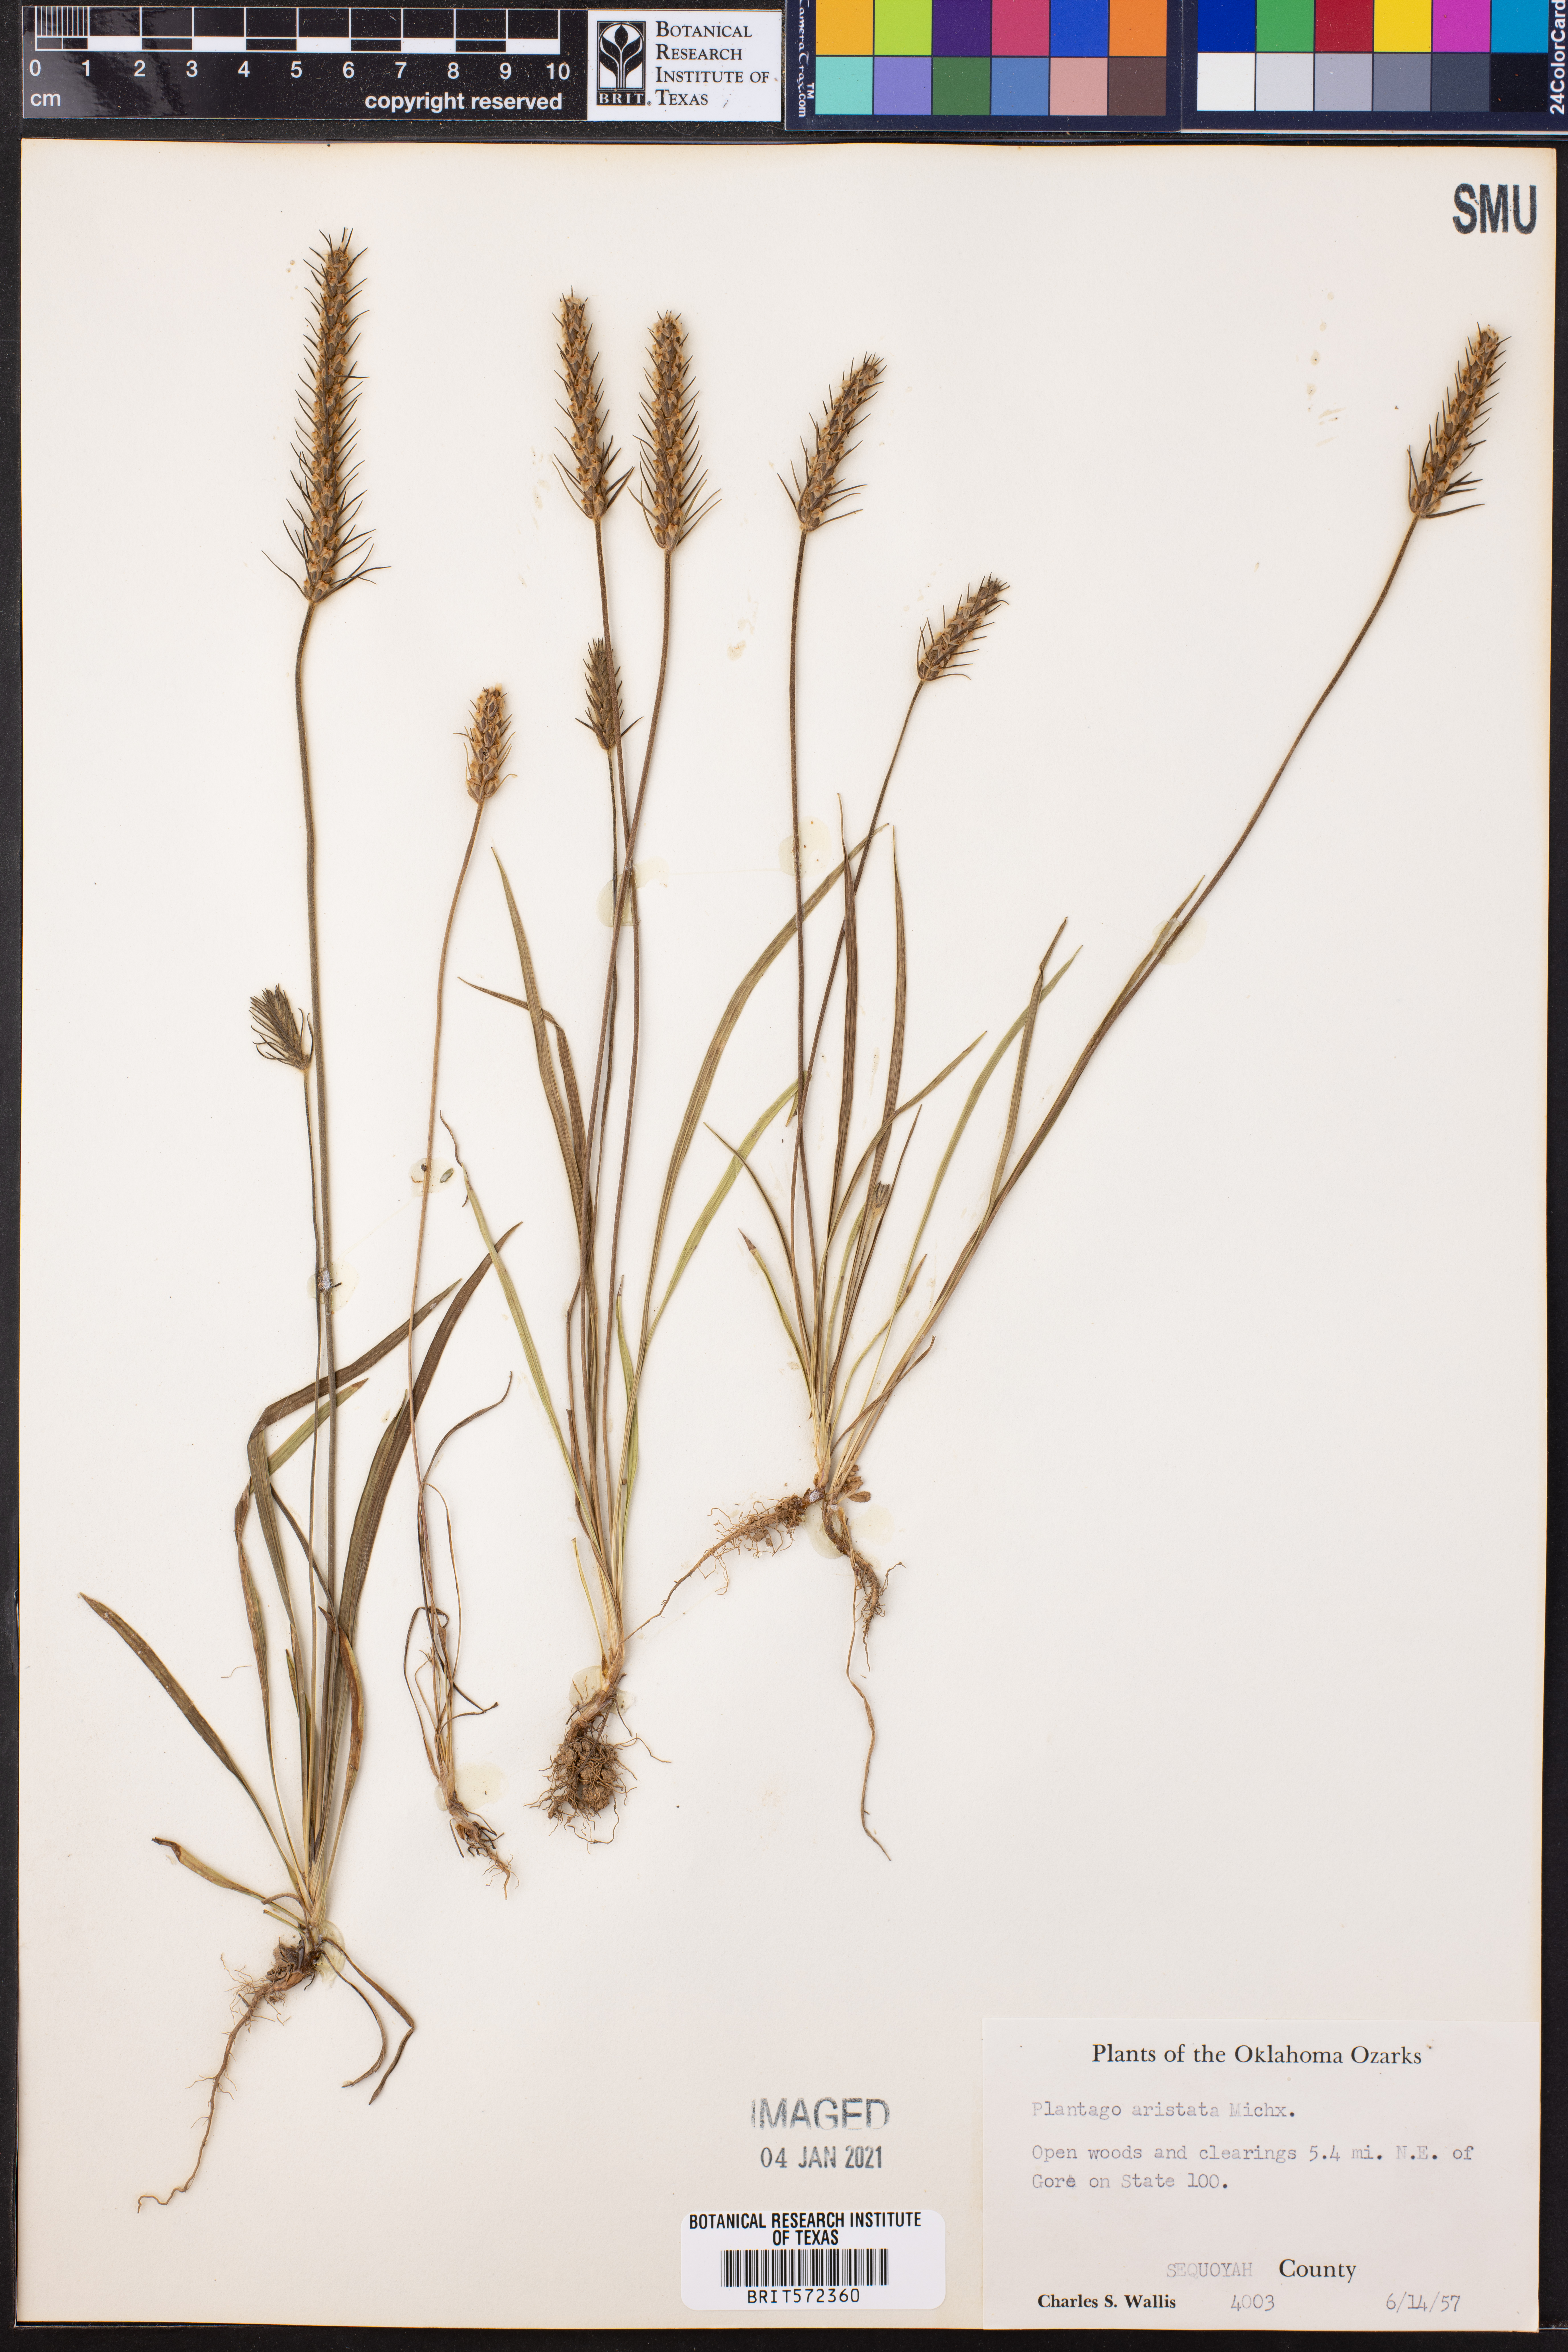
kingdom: Plantae
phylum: Tracheophyta
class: Magnoliopsida
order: Lamiales
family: Plantaginaceae
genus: Plantago
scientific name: Plantago aristata
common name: Bracted plantain
